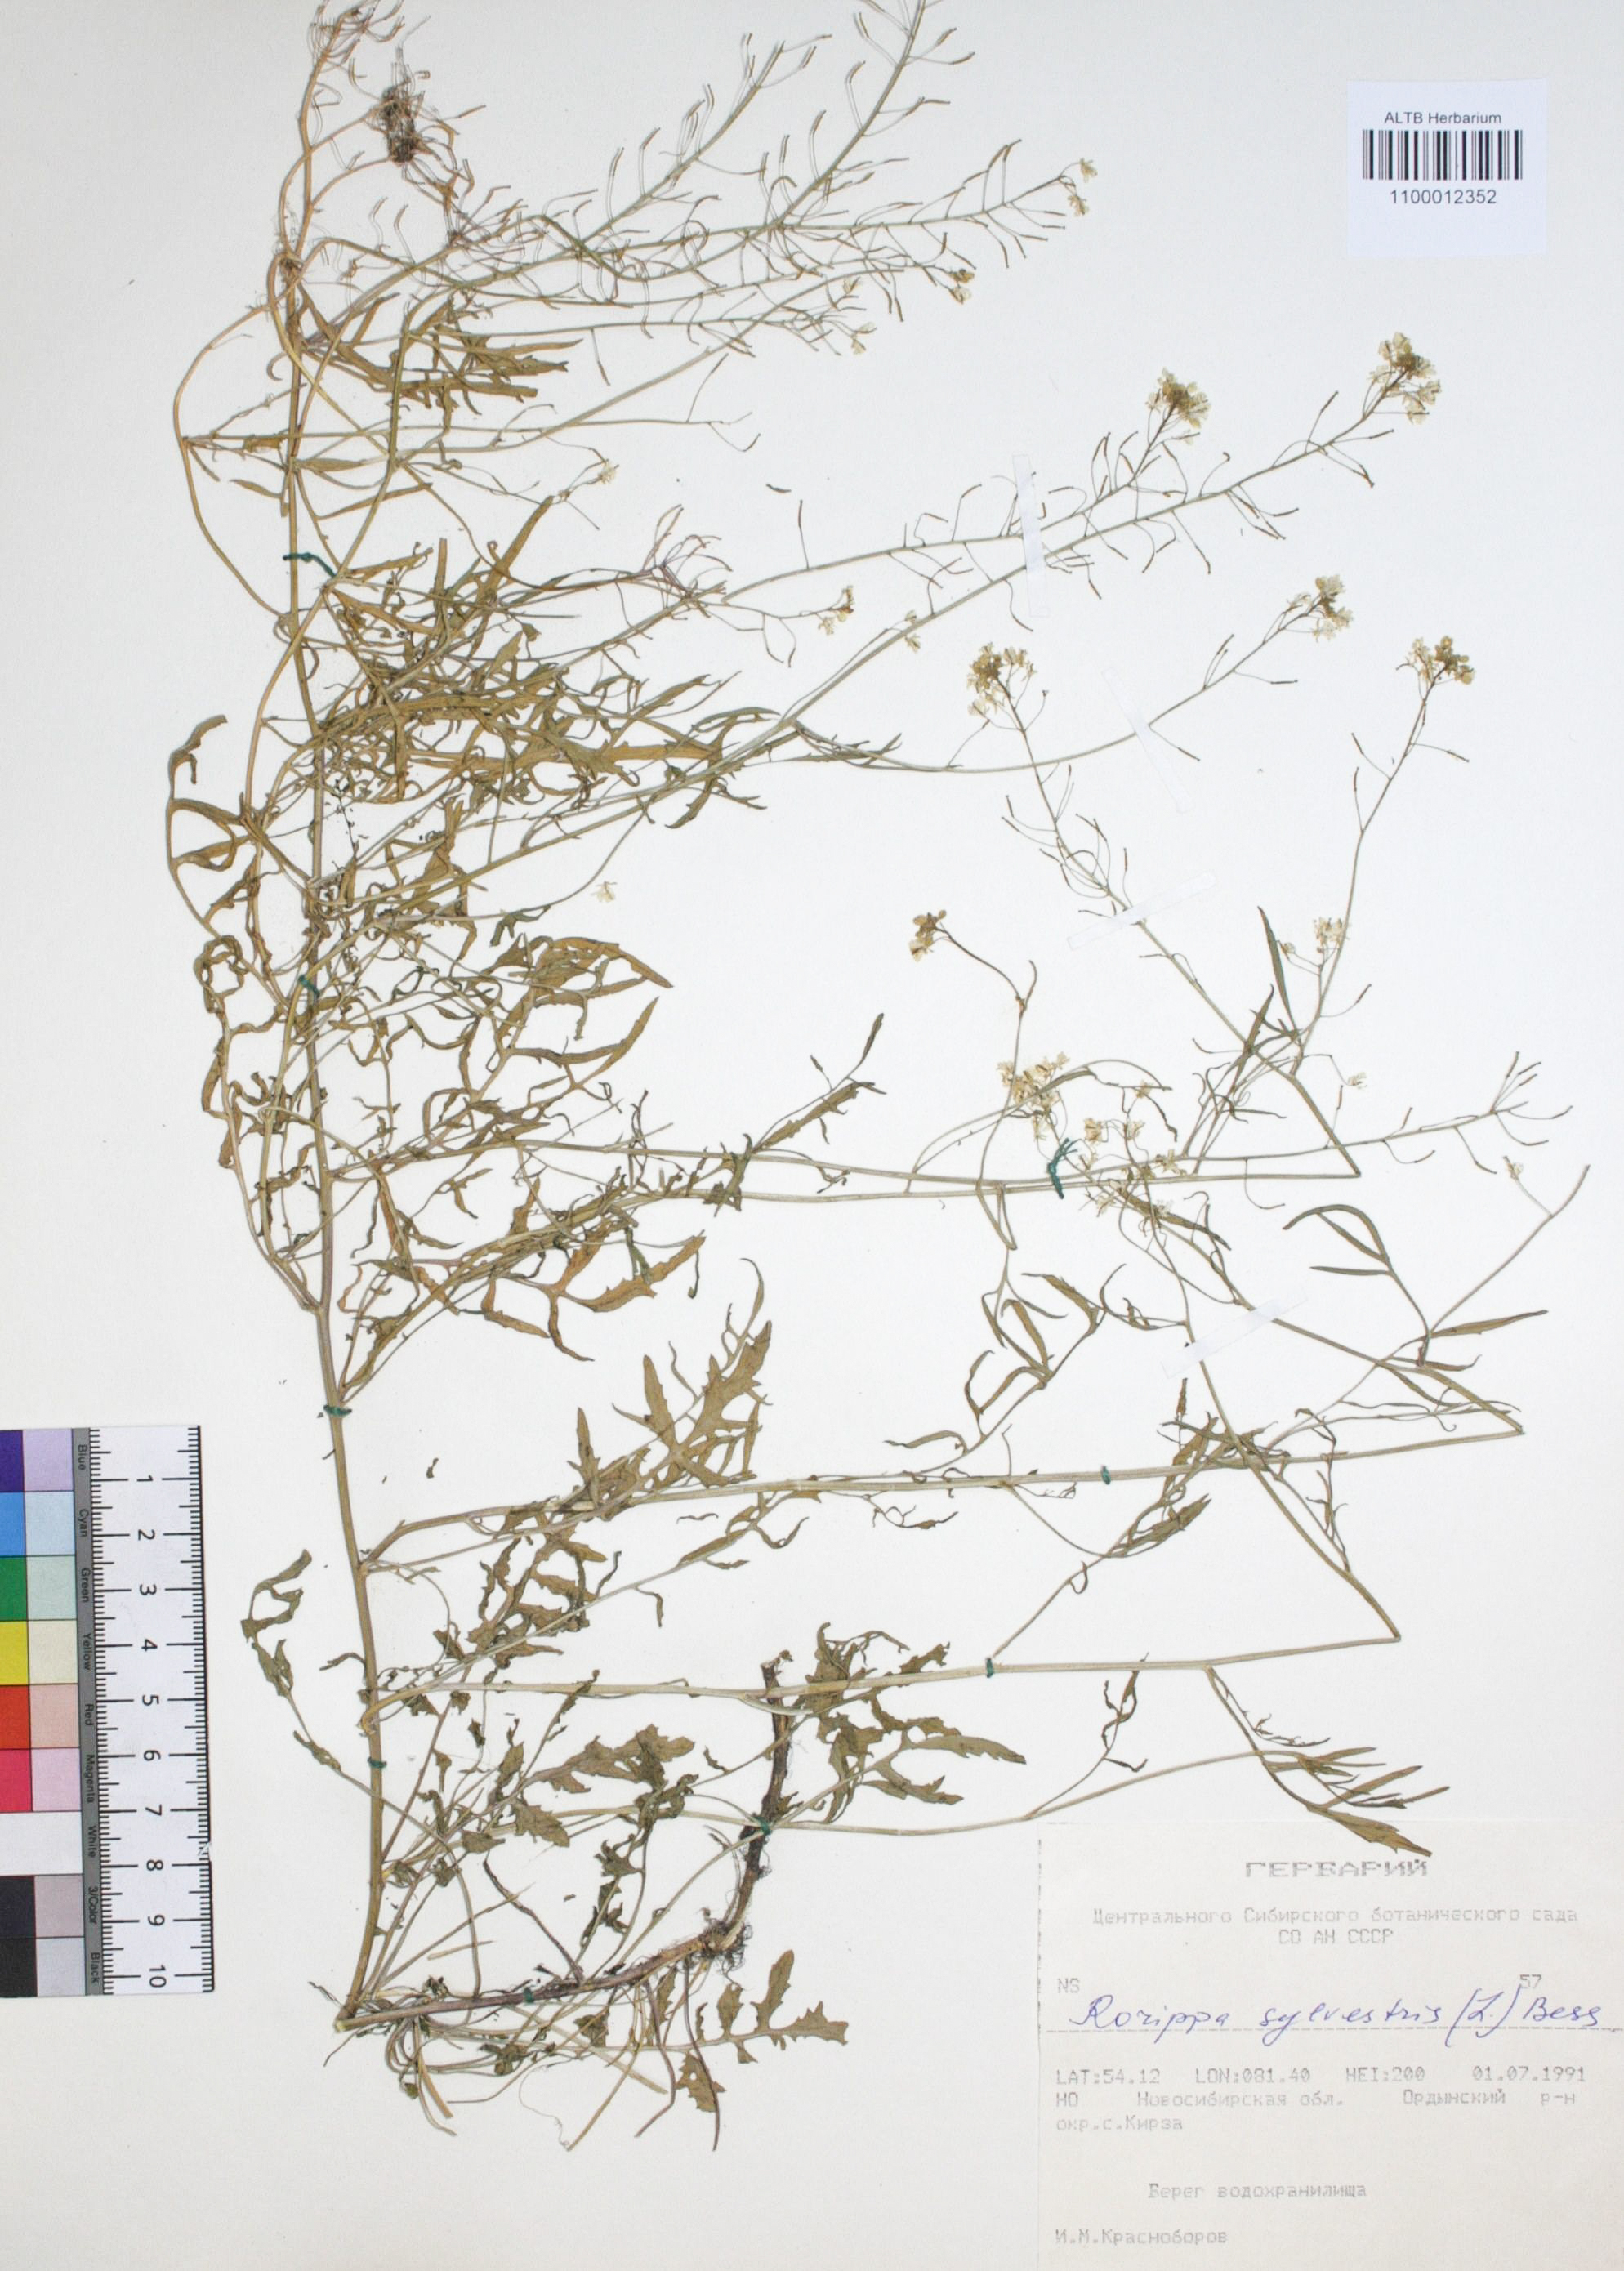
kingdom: Plantae
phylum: Tracheophyta
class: Magnoliopsida
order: Brassicales
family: Brassicaceae
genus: Rorippa
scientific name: Rorippa sylvestris
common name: Creeping yellowcress
